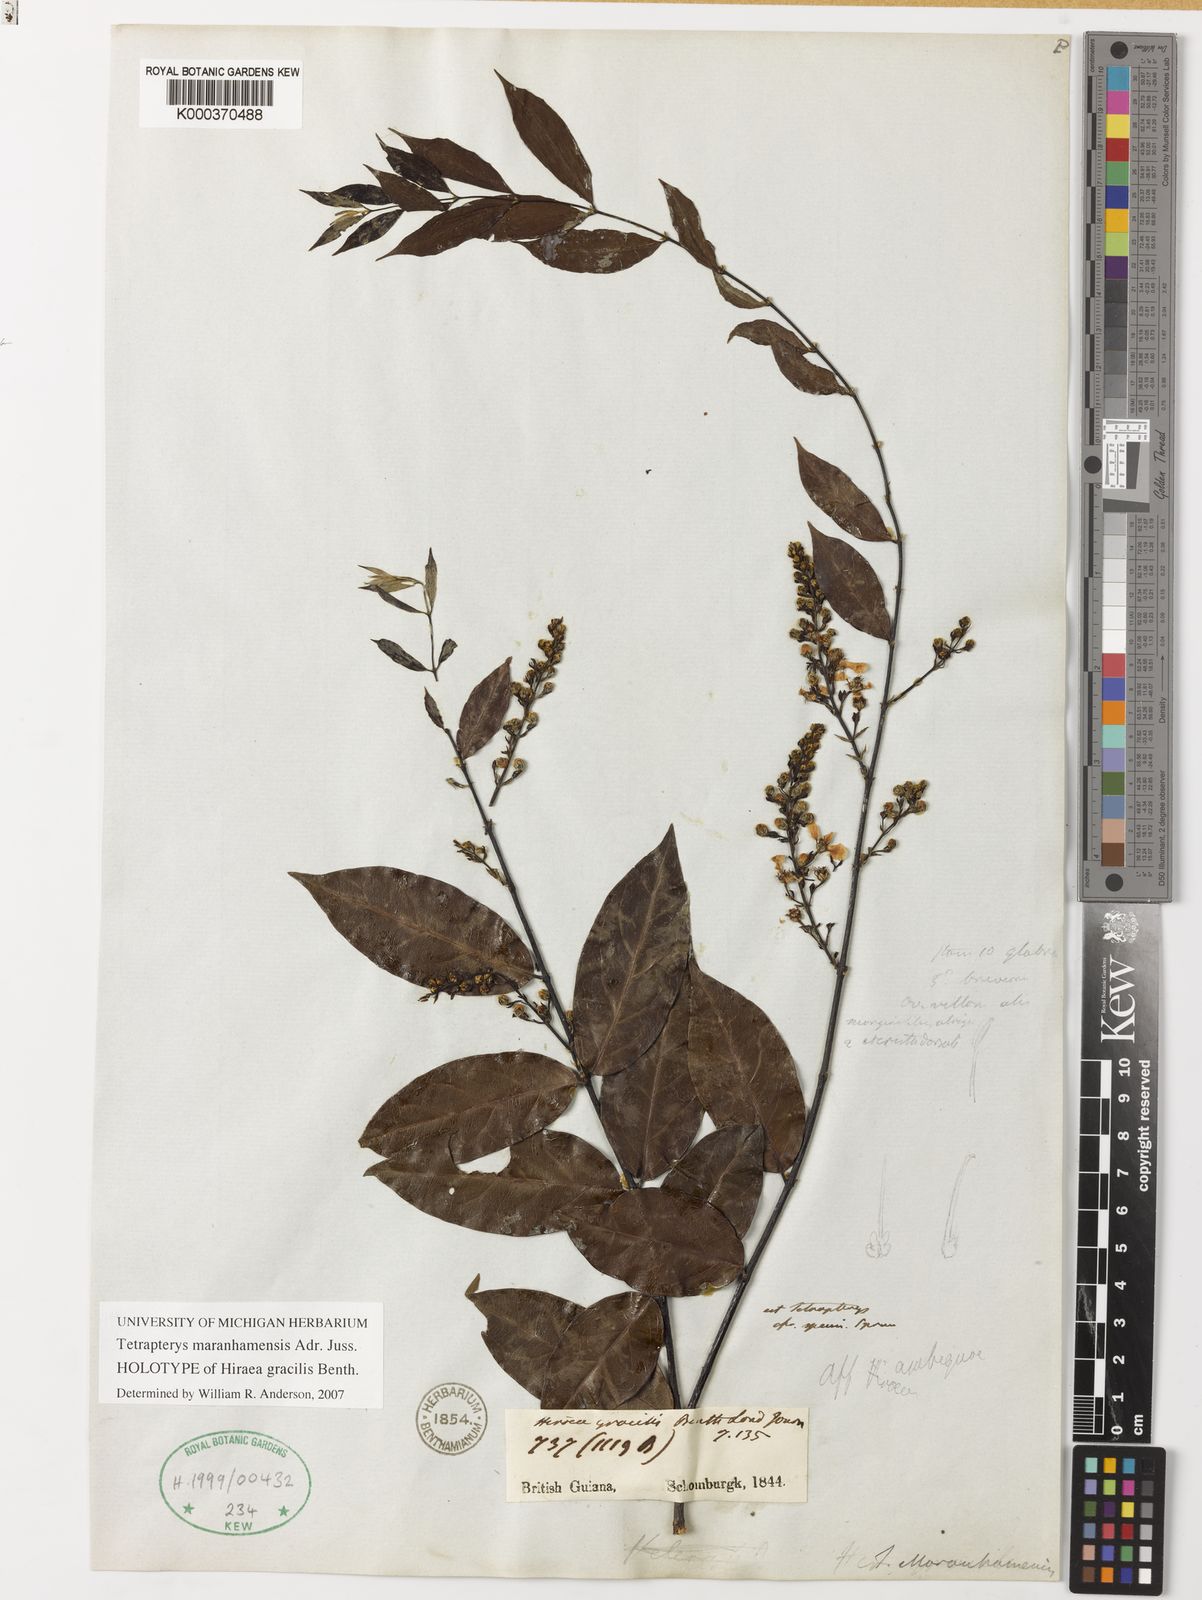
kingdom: Plantae
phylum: Tracheophyta
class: Magnoliopsida
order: Malpighiales
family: Malpighiaceae
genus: Glicophyllum
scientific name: Glicophyllum maranhamense
